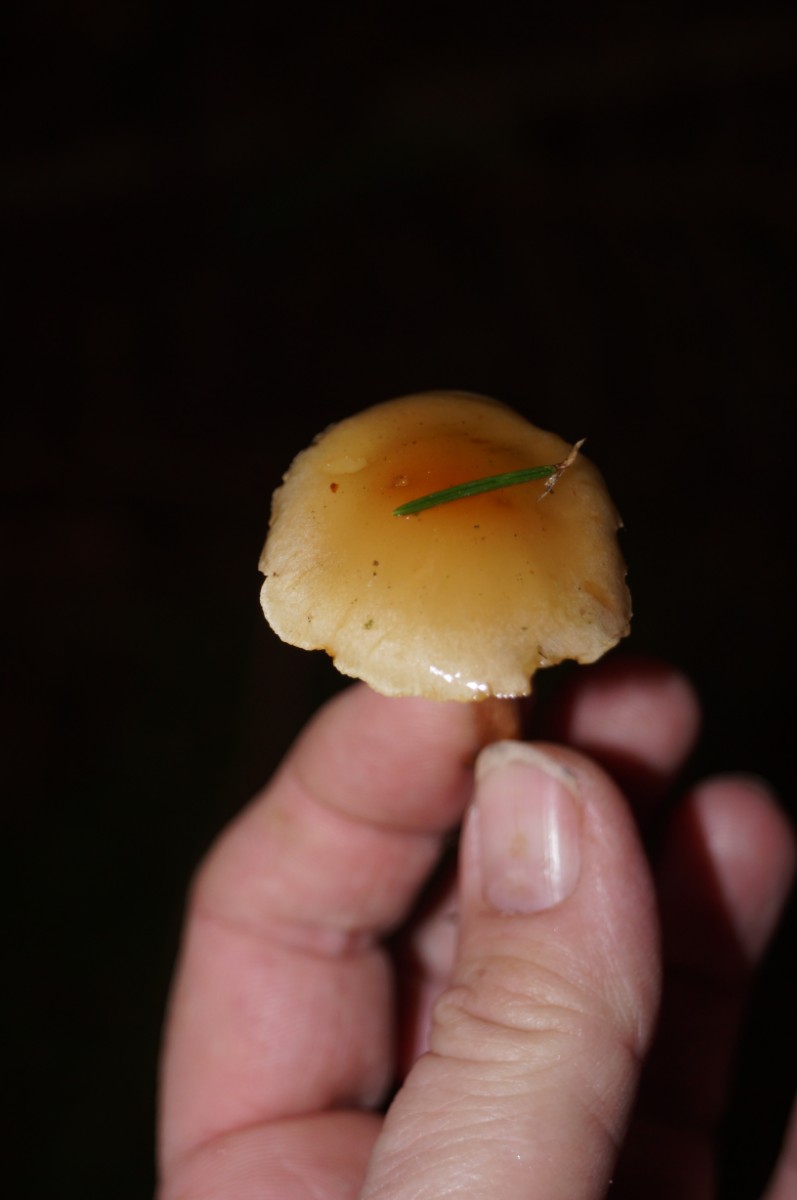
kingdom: Fungi
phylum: Basidiomycota
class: Agaricomycetes
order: Agaricales
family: Strophariaceae
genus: Hypholoma
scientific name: Hypholoma capnoides
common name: gran-svovlhat
